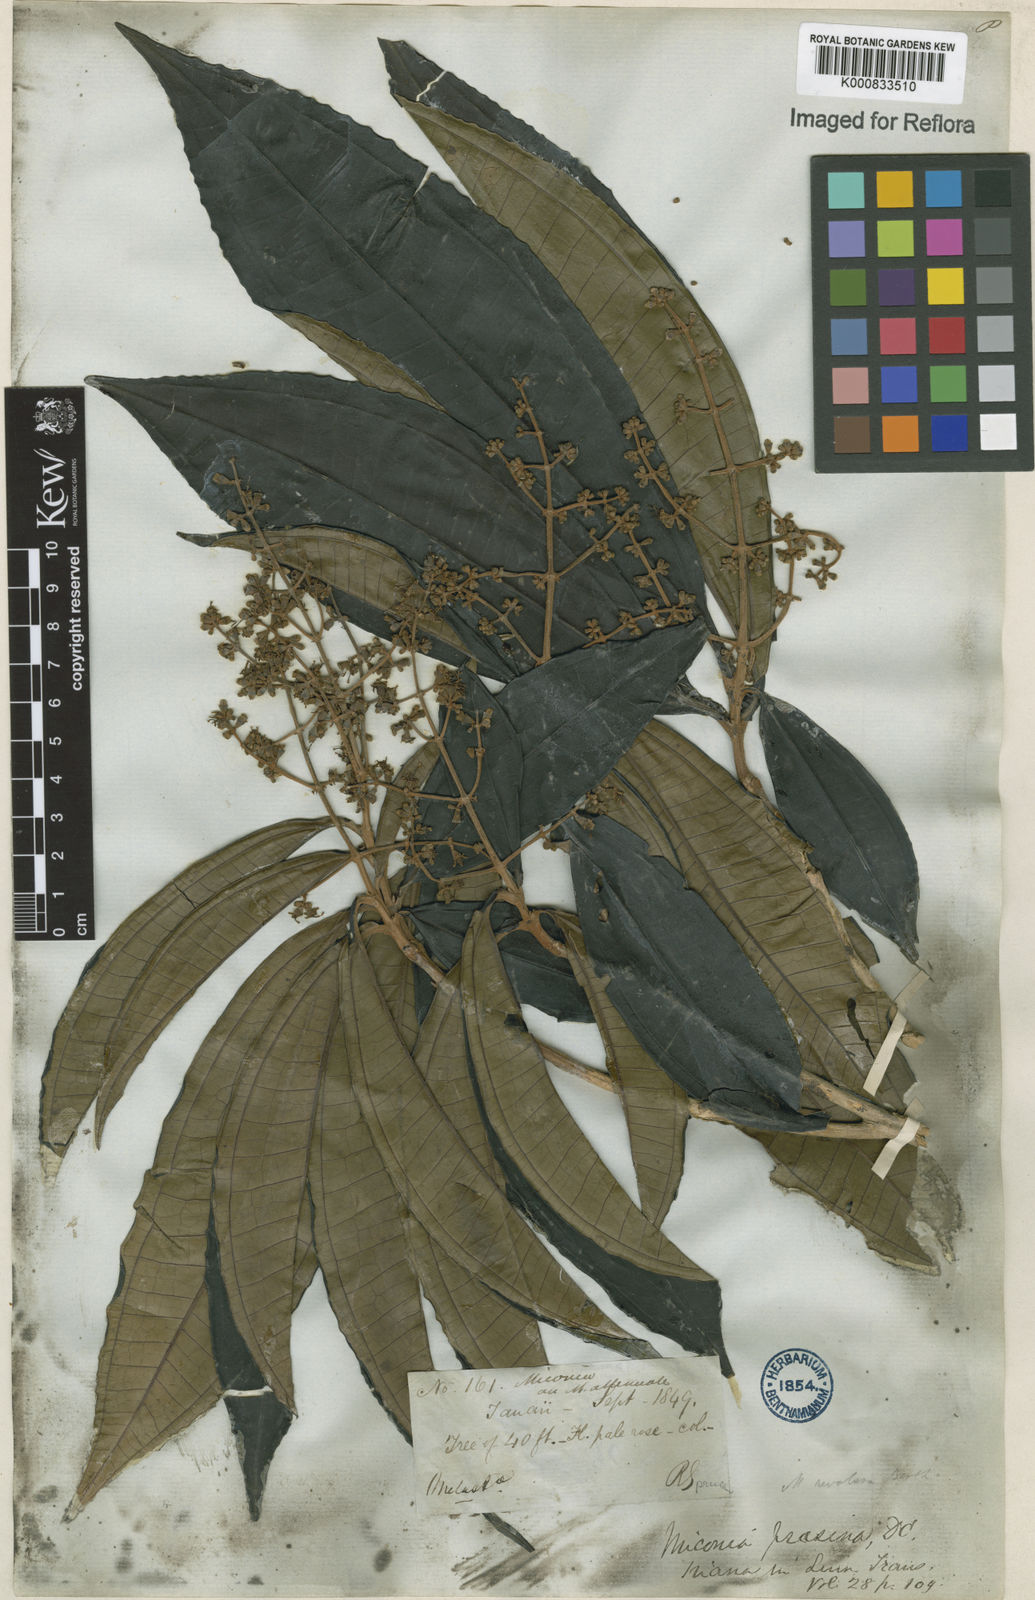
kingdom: Plantae
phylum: Tracheophyta
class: Magnoliopsida
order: Myrtales
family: Melastomataceae
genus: Miconia
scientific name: Miconia prasina
